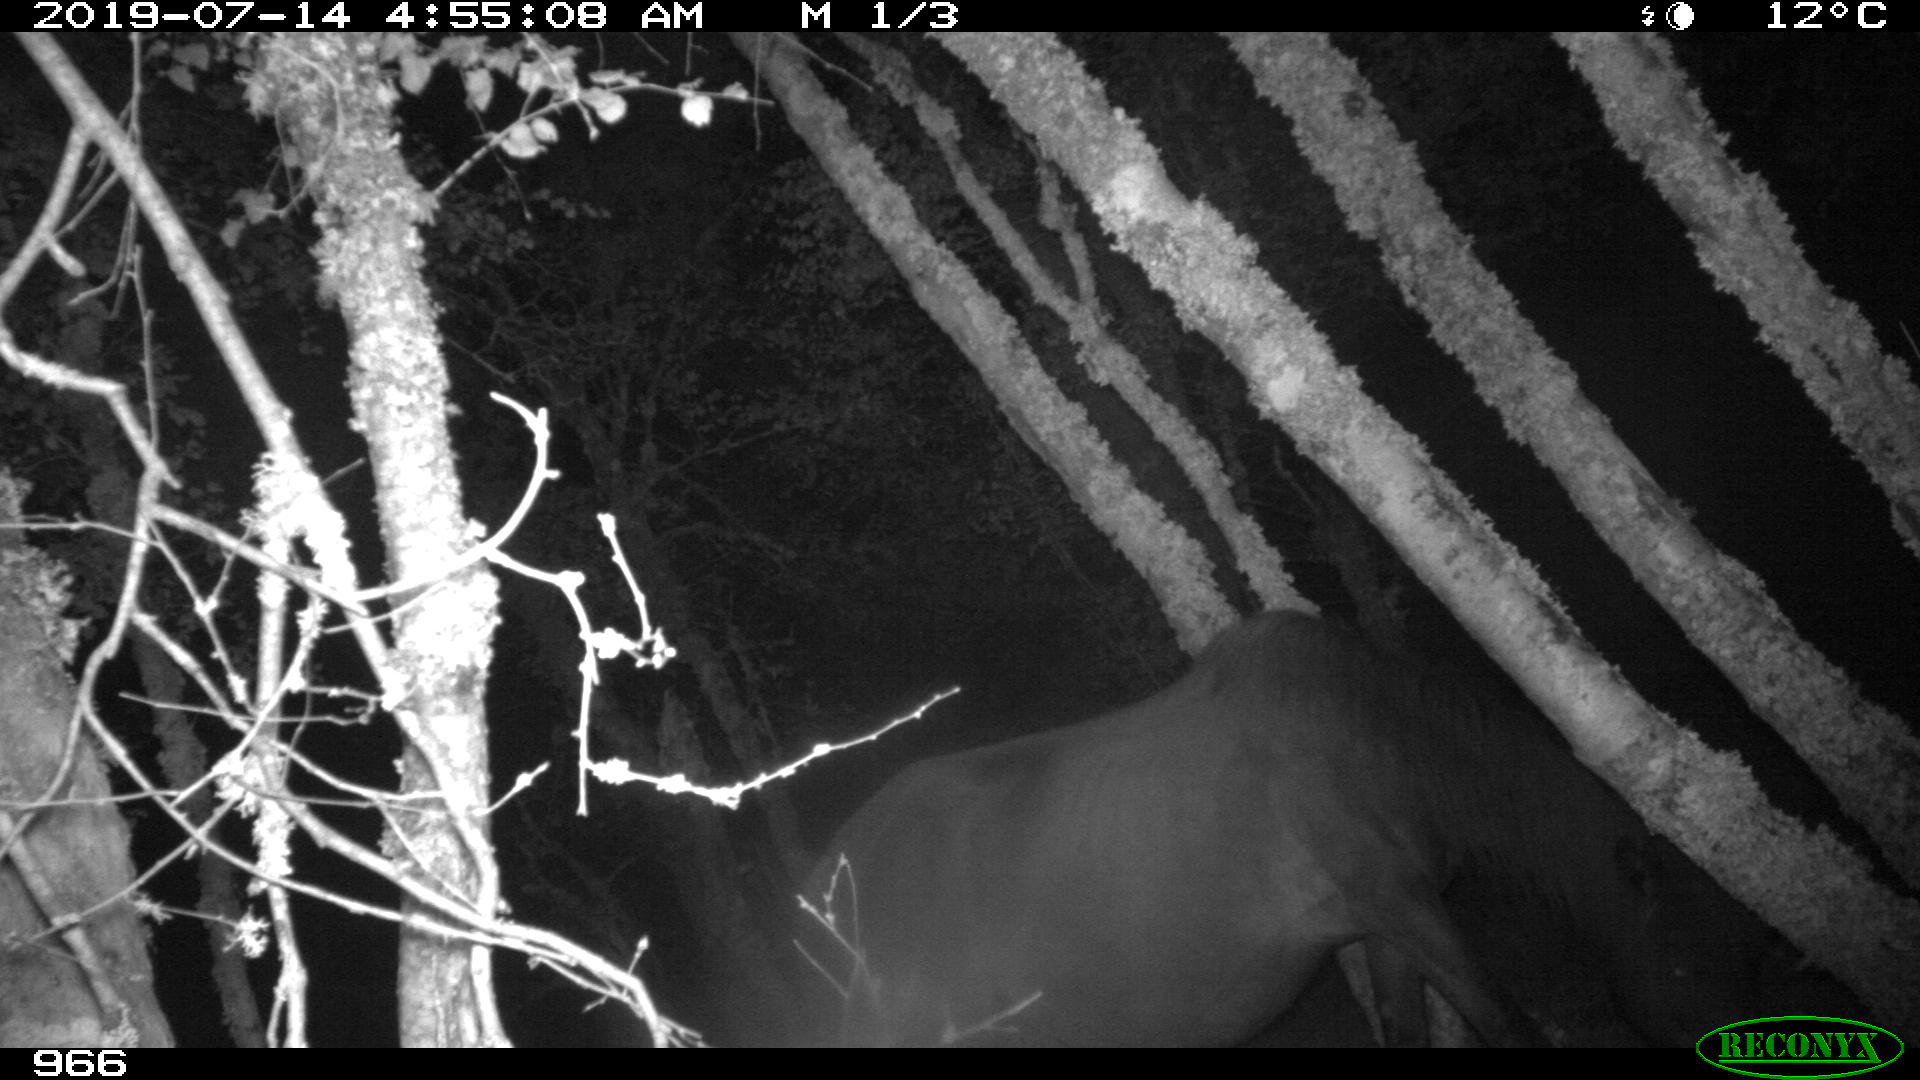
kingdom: Animalia
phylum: Chordata
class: Mammalia
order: Perissodactyla
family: Equidae
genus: Equus
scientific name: Equus caballus
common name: Horse
